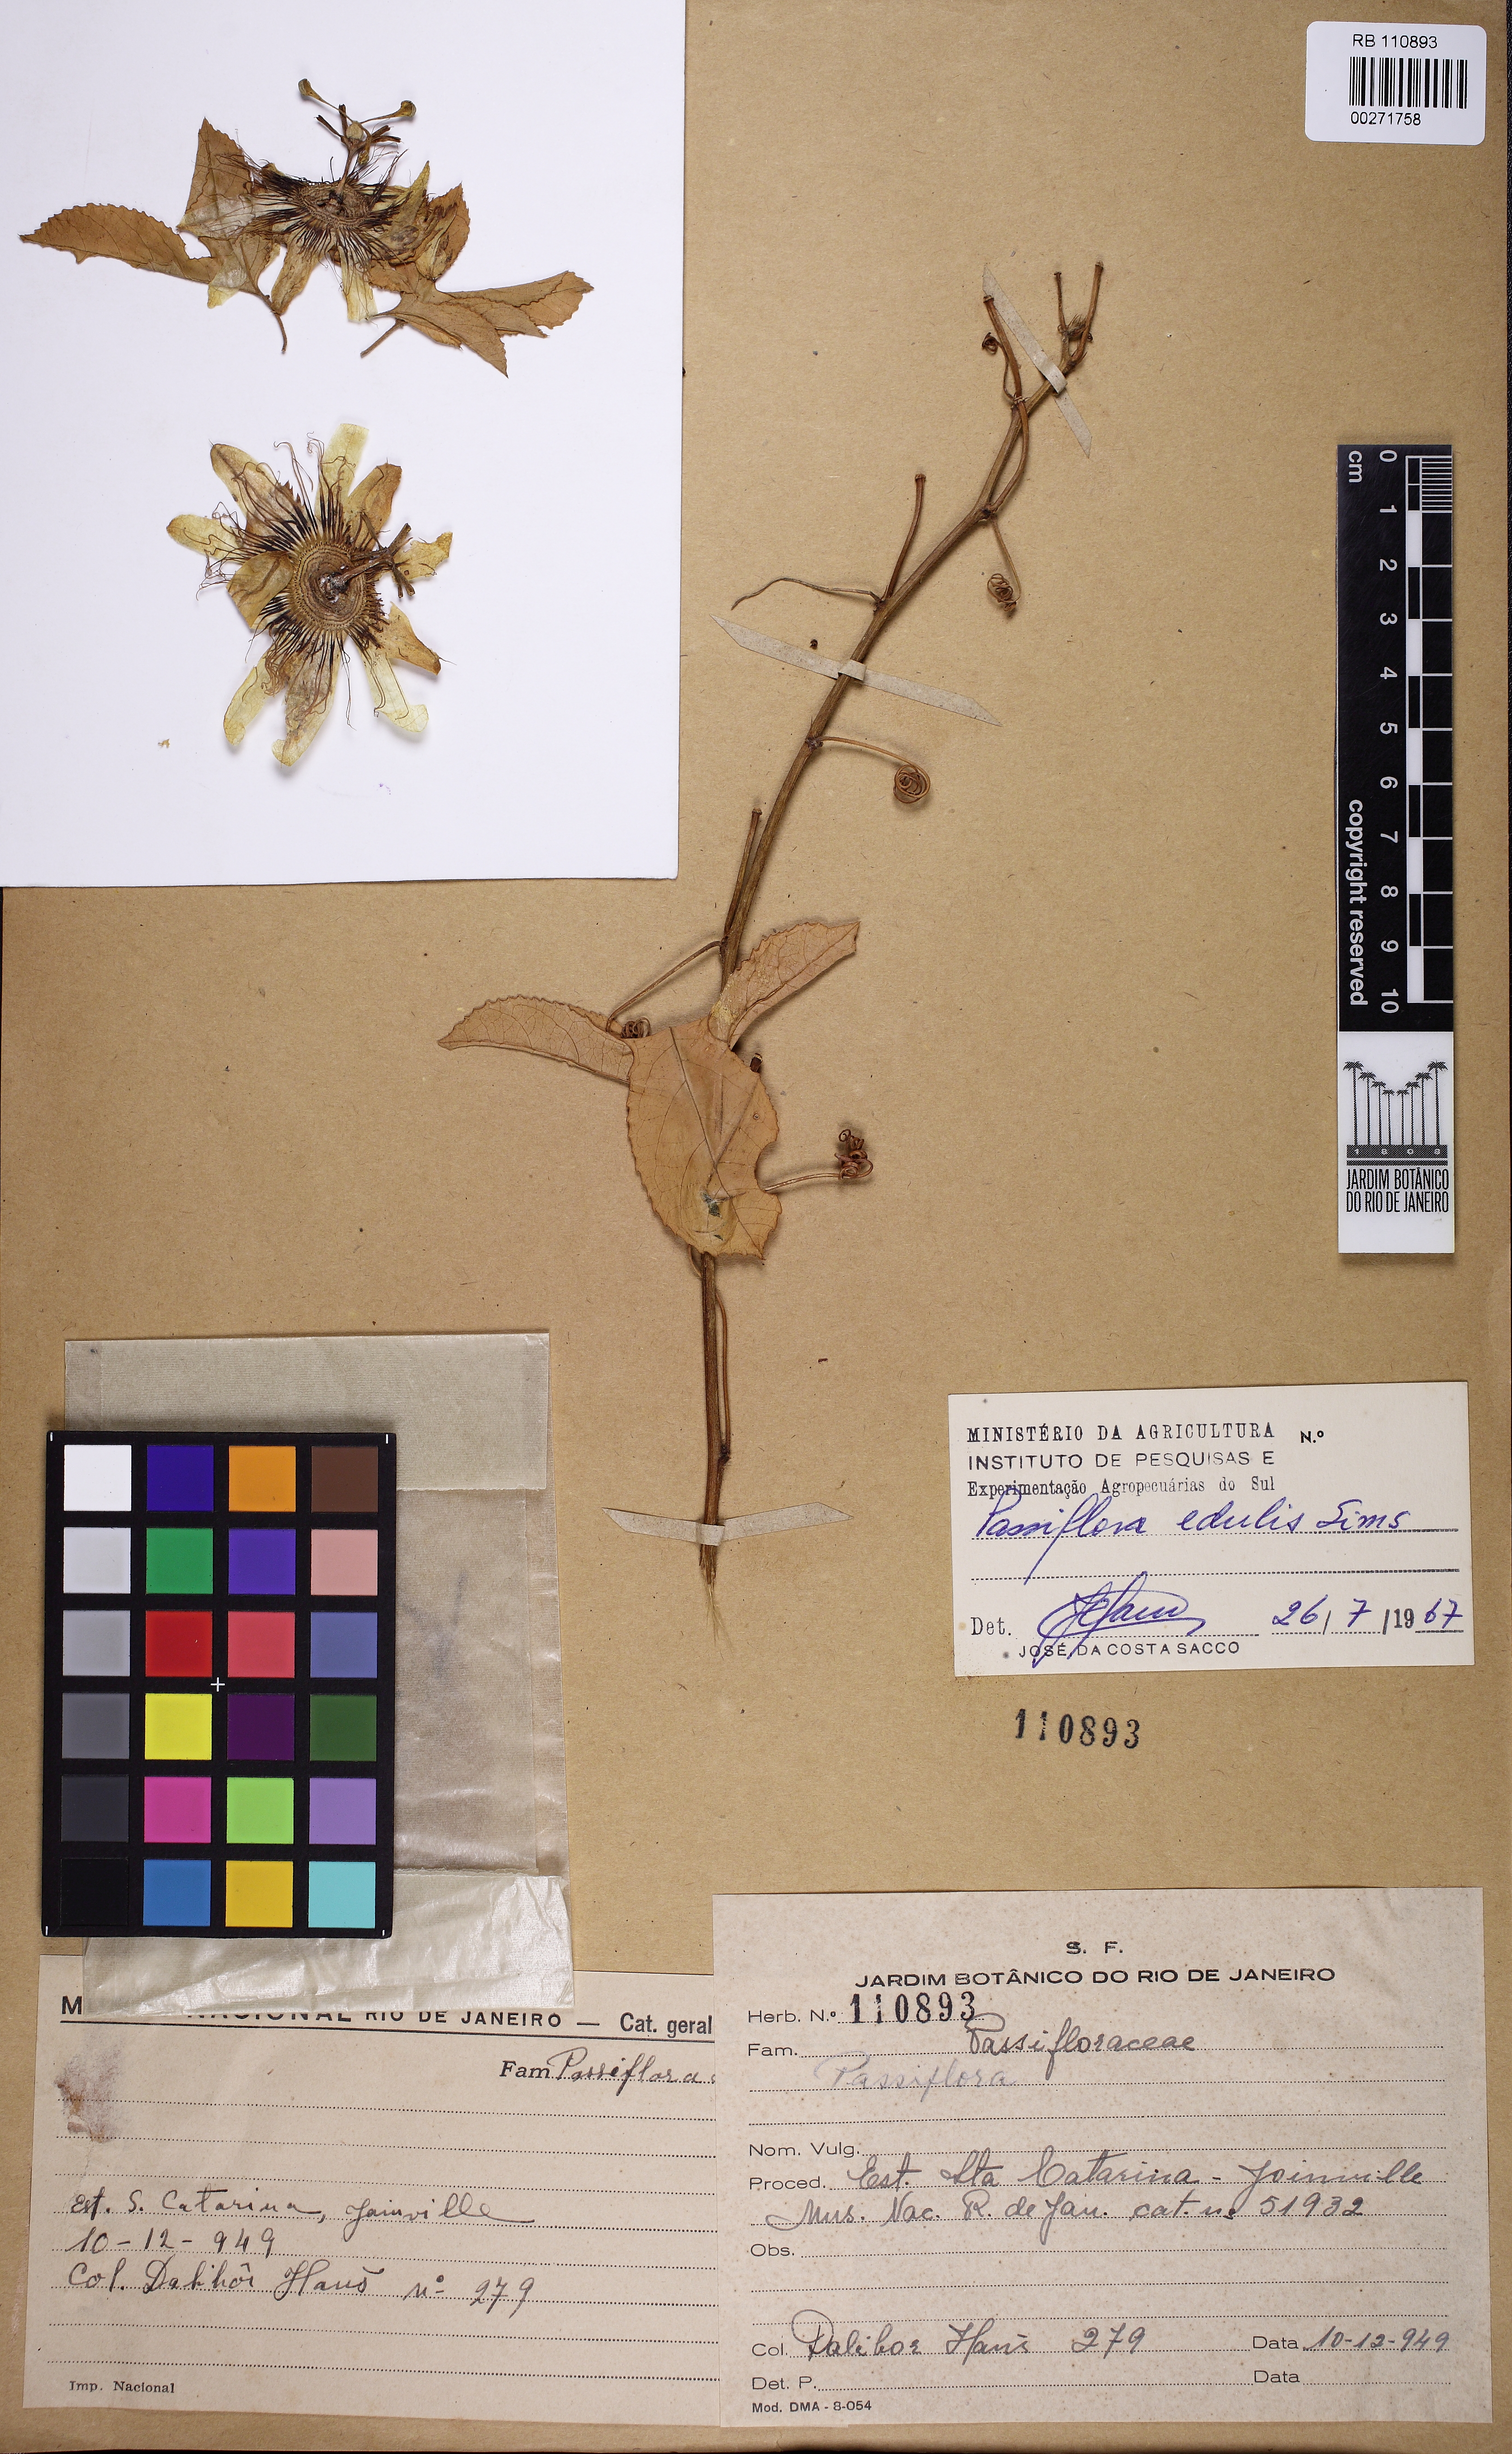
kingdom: Plantae
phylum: Tracheophyta
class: Magnoliopsida
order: Malpighiales
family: Passifloraceae
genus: Passiflora
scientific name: Passiflora edulis
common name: Purple granadilla
